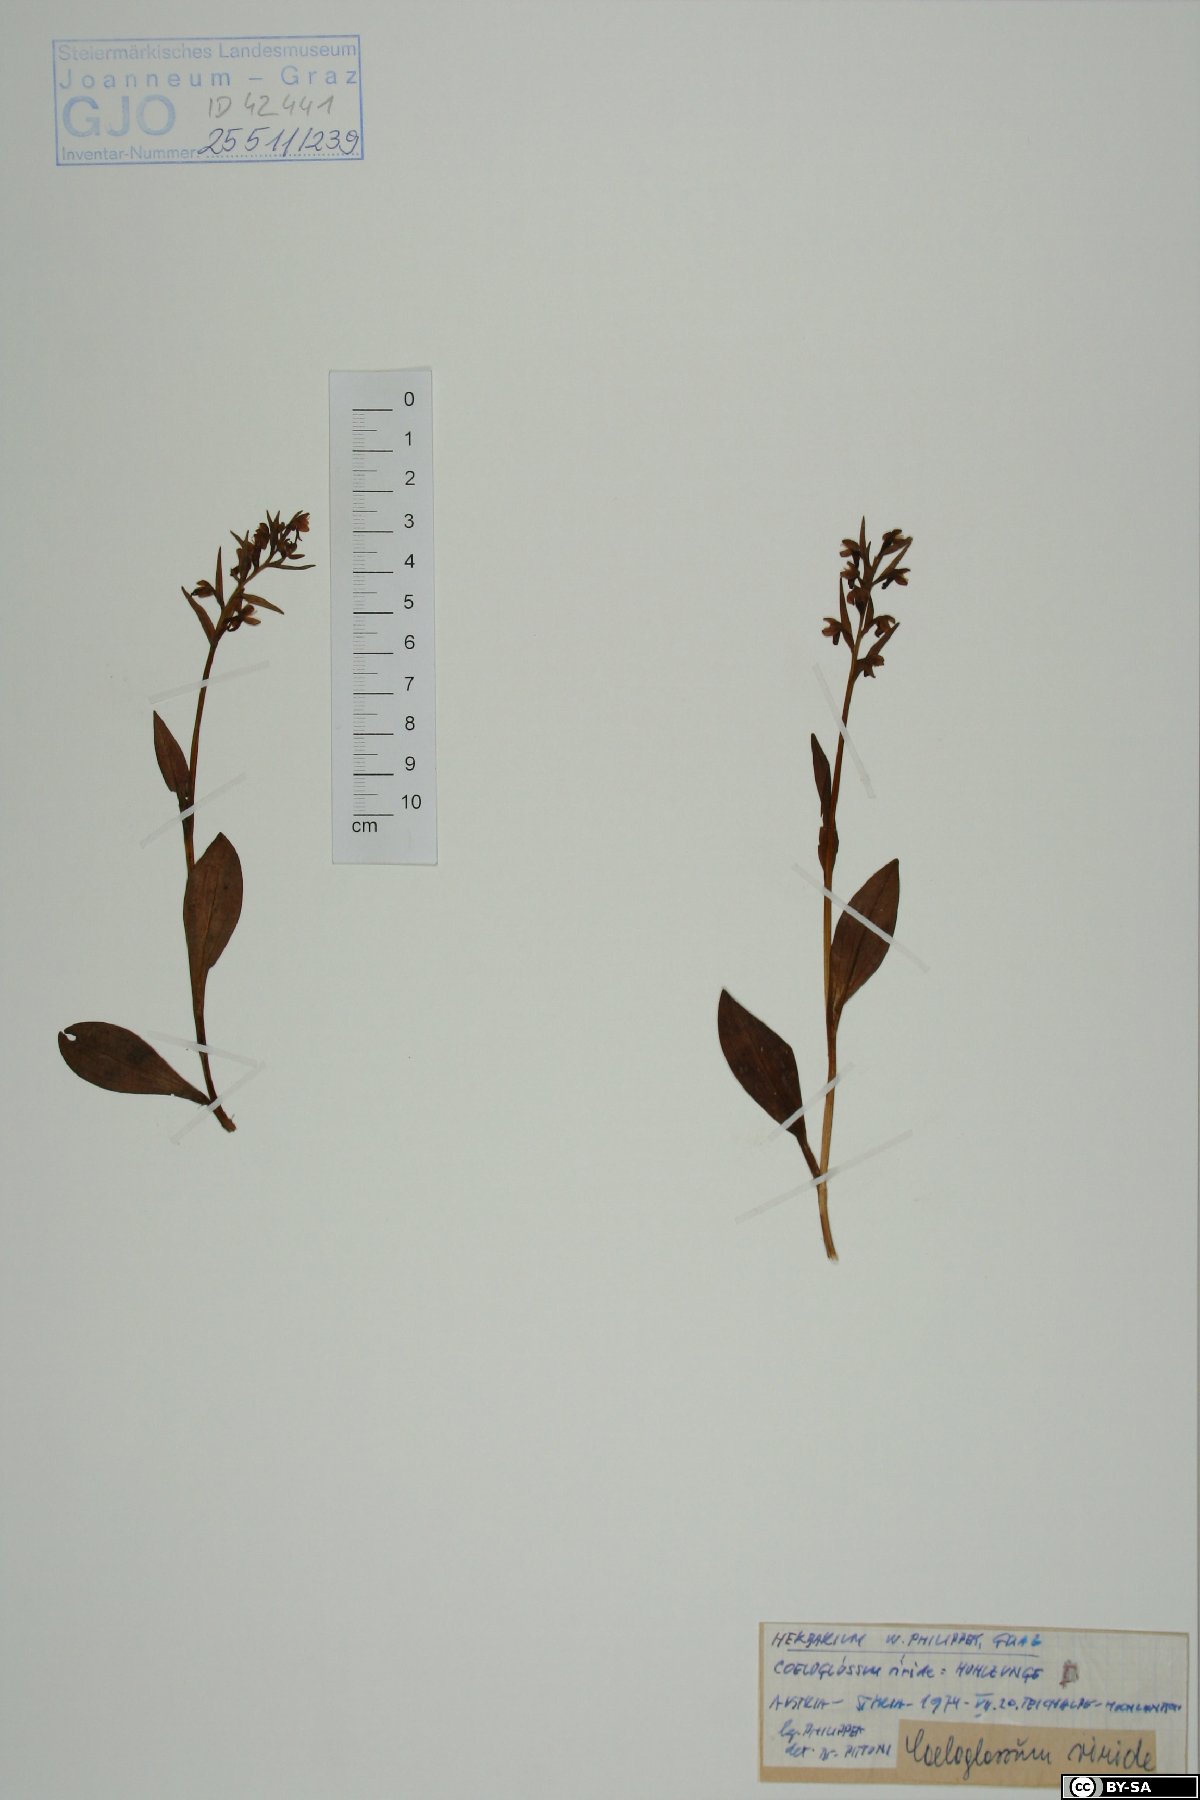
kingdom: Plantae
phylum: Tracheophyta
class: Liliopsida
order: Asparagales
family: Orchidaceae
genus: Dactylorhiza
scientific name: Dactylorhiza viridis
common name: Longbract frog orchid
